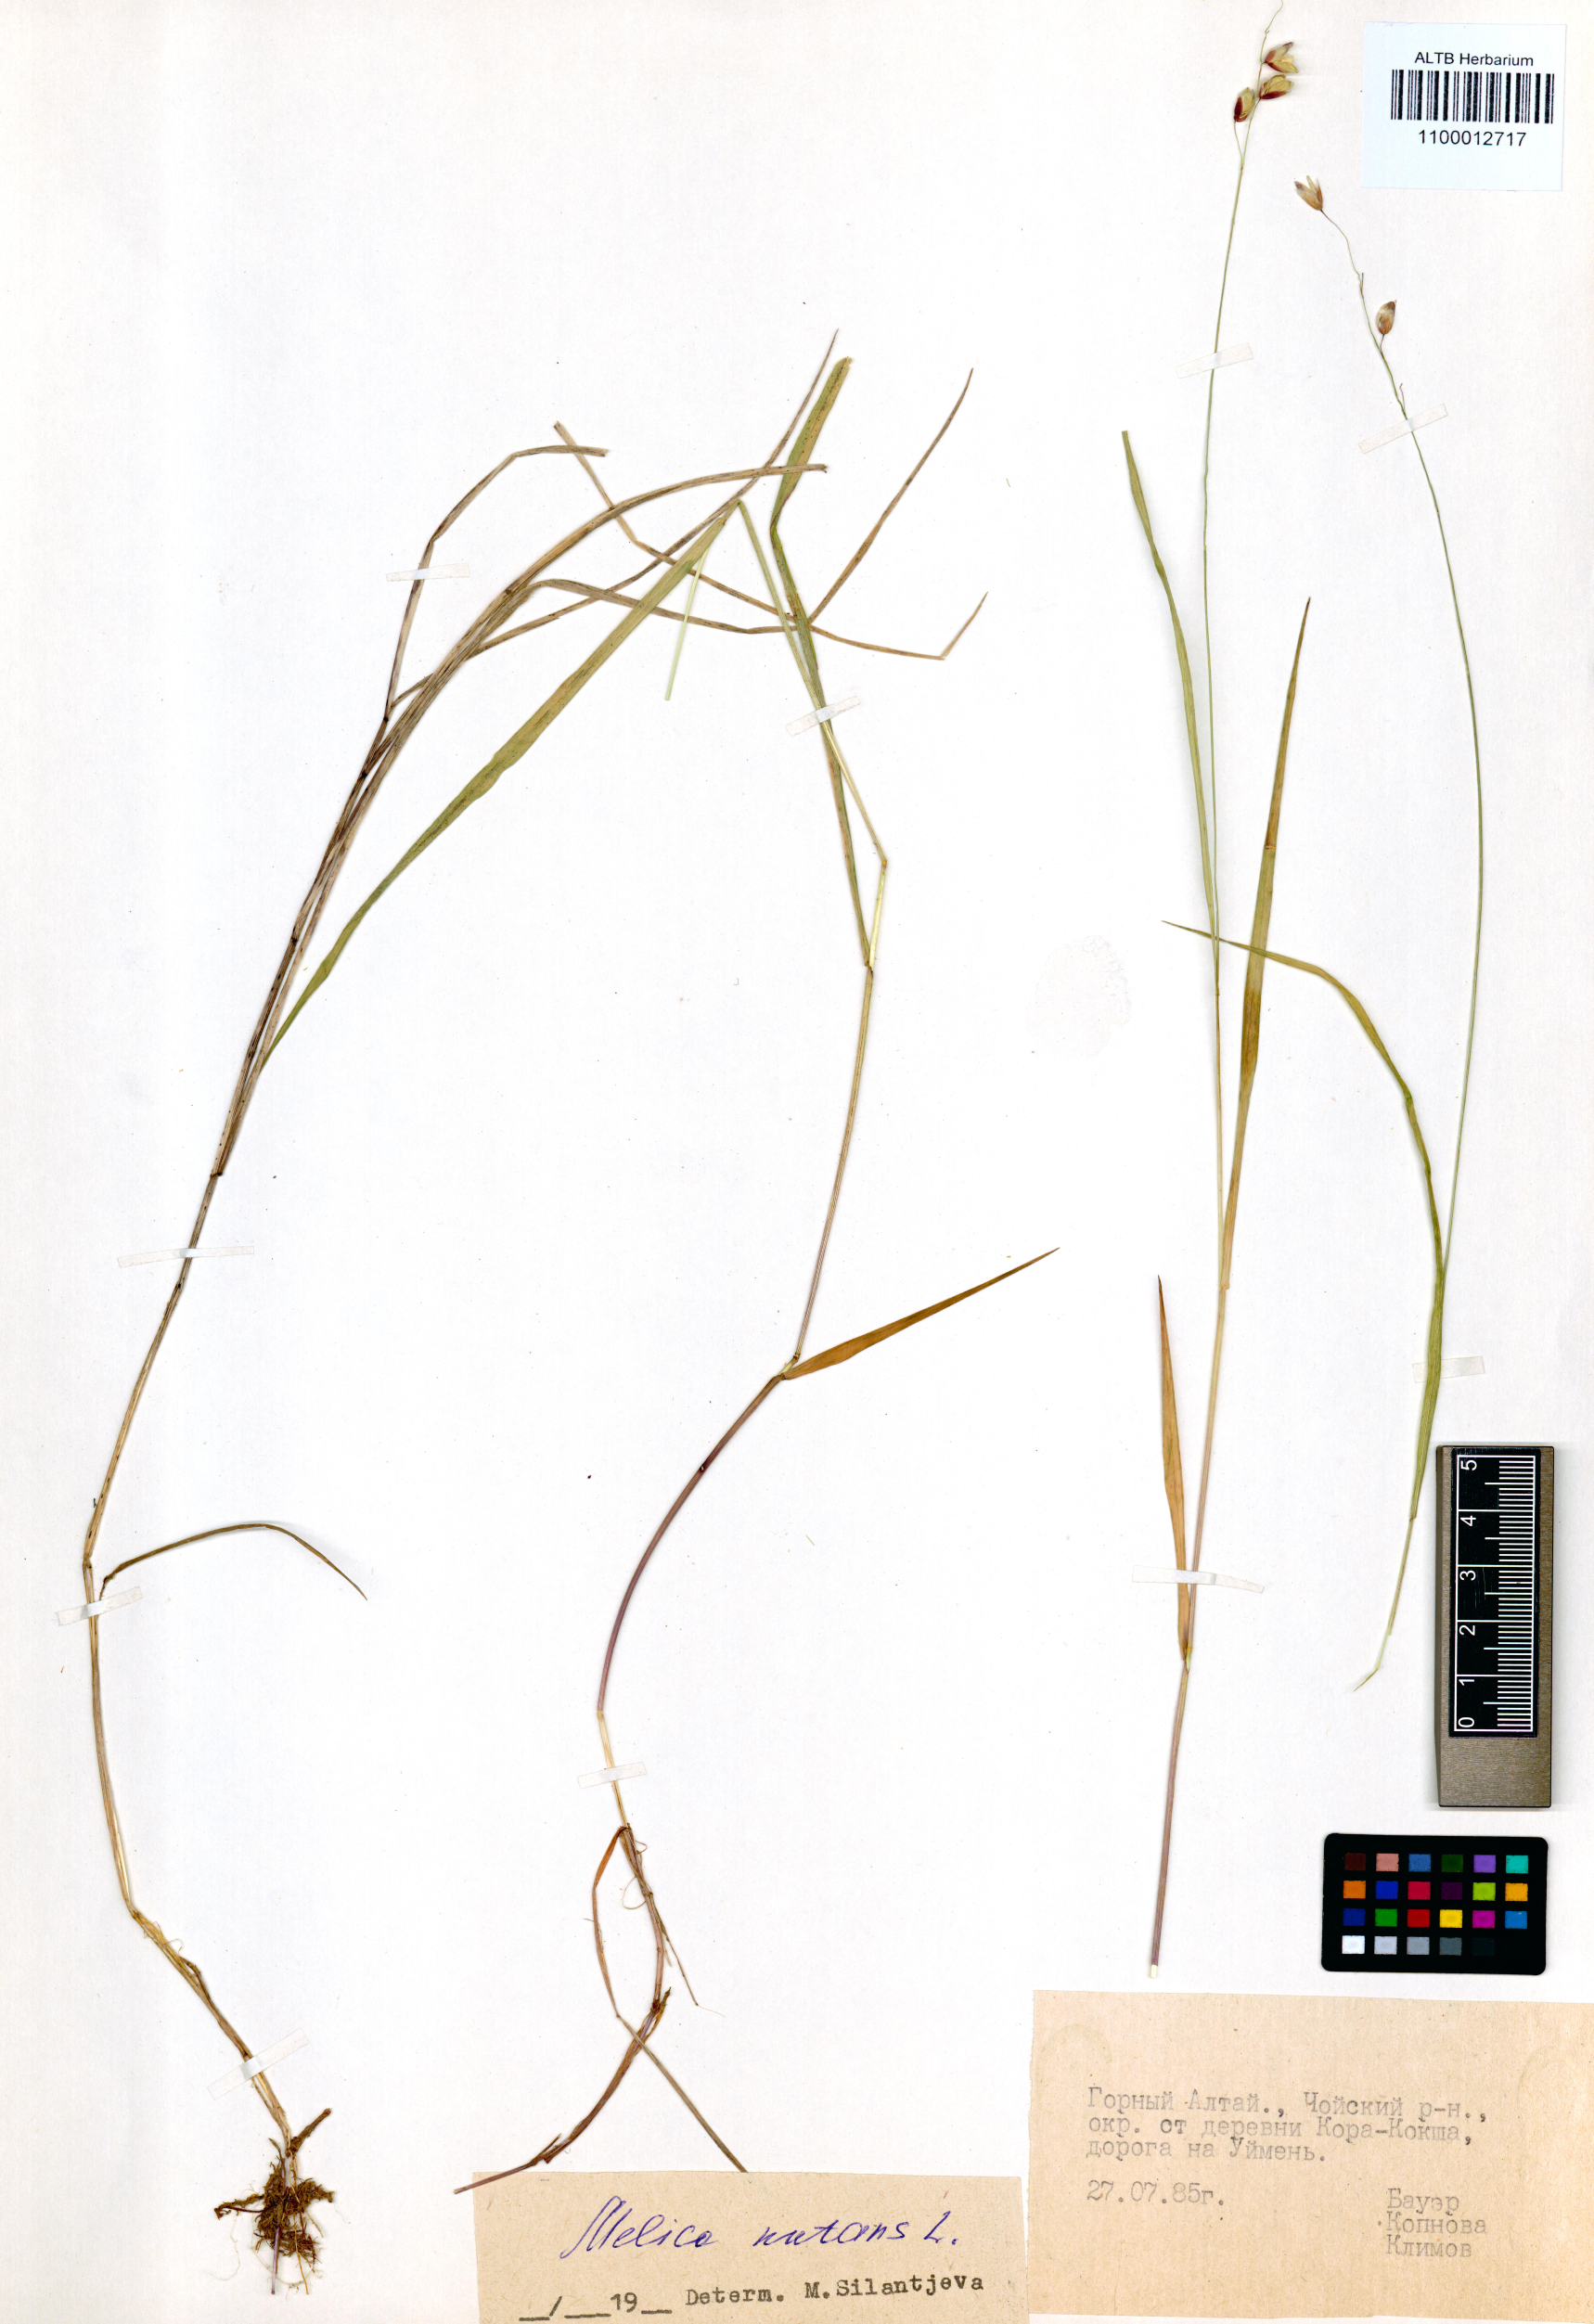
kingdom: Plantae
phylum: Tracheophyta
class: Liliopsida
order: Poales
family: Poaceae
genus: Melica
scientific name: Melica nutans
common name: Mountain melick
